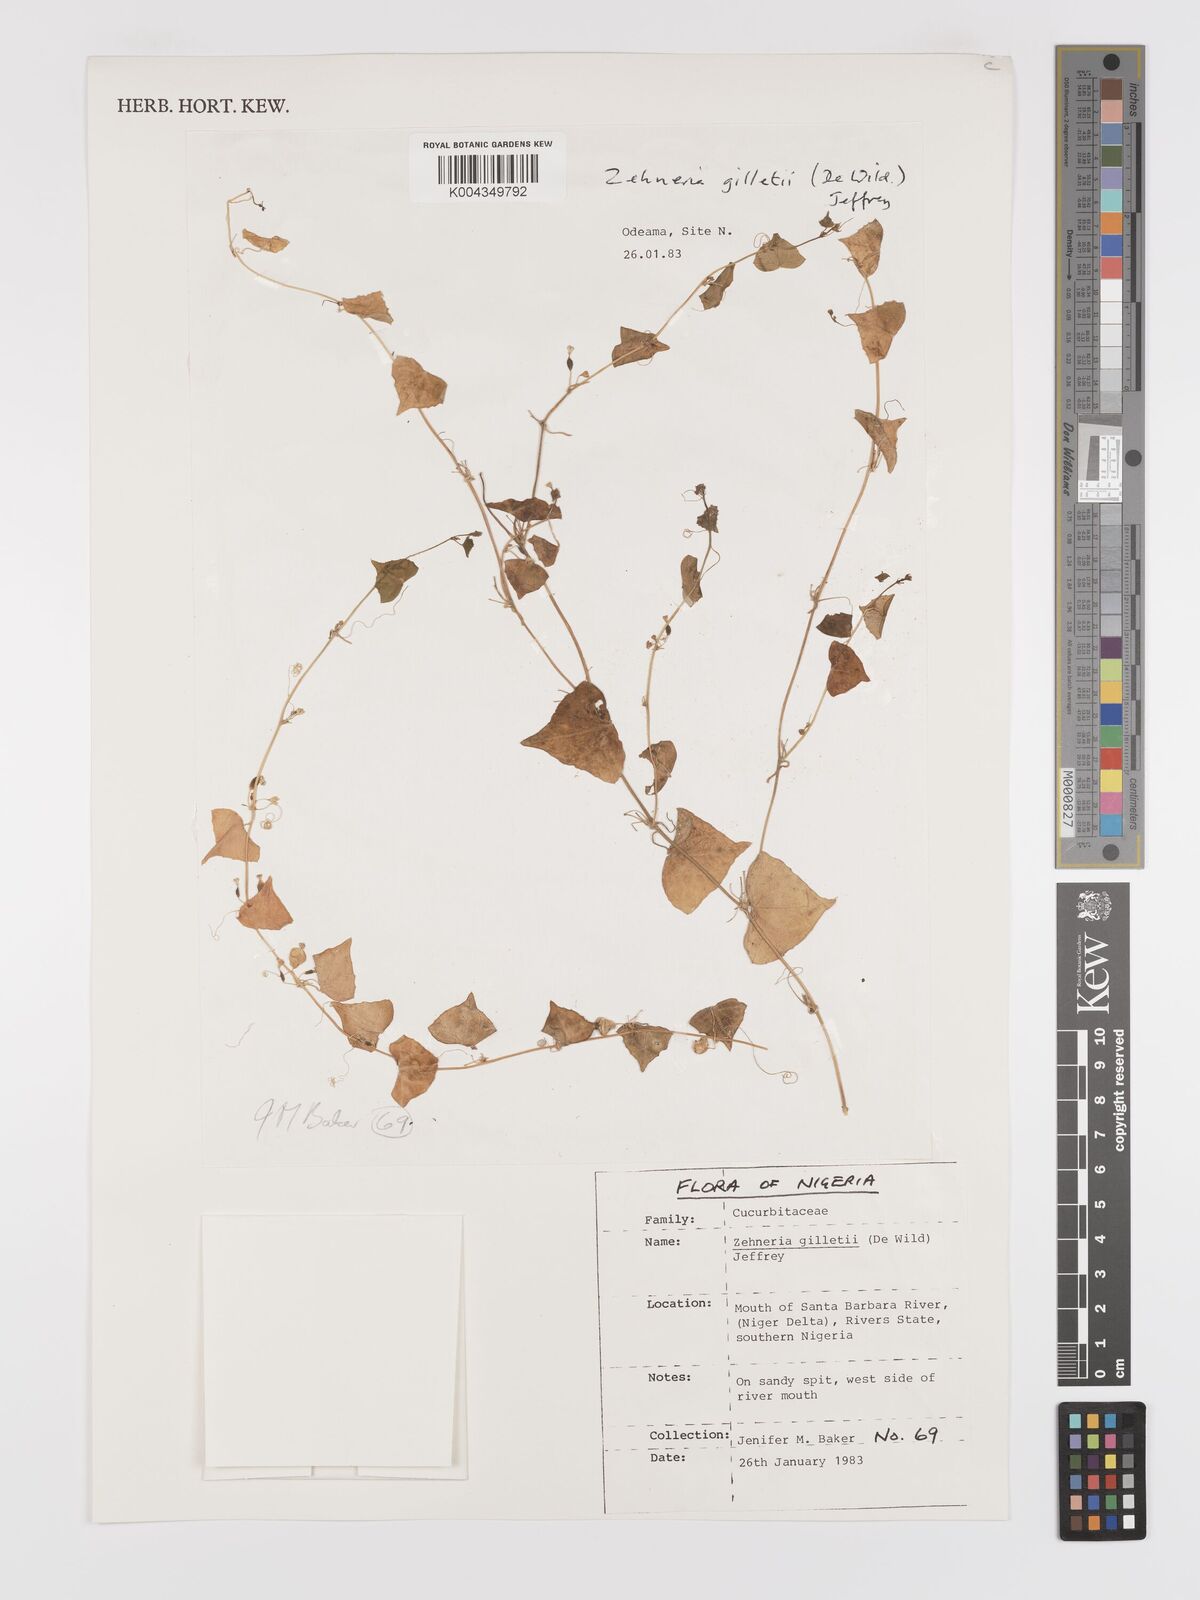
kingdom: Plantae
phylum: Tracheophyta
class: Magnoliopsida
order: Cucurbitales
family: Cucurbitaceae
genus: Zehneria
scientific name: Zehneria gilletii
